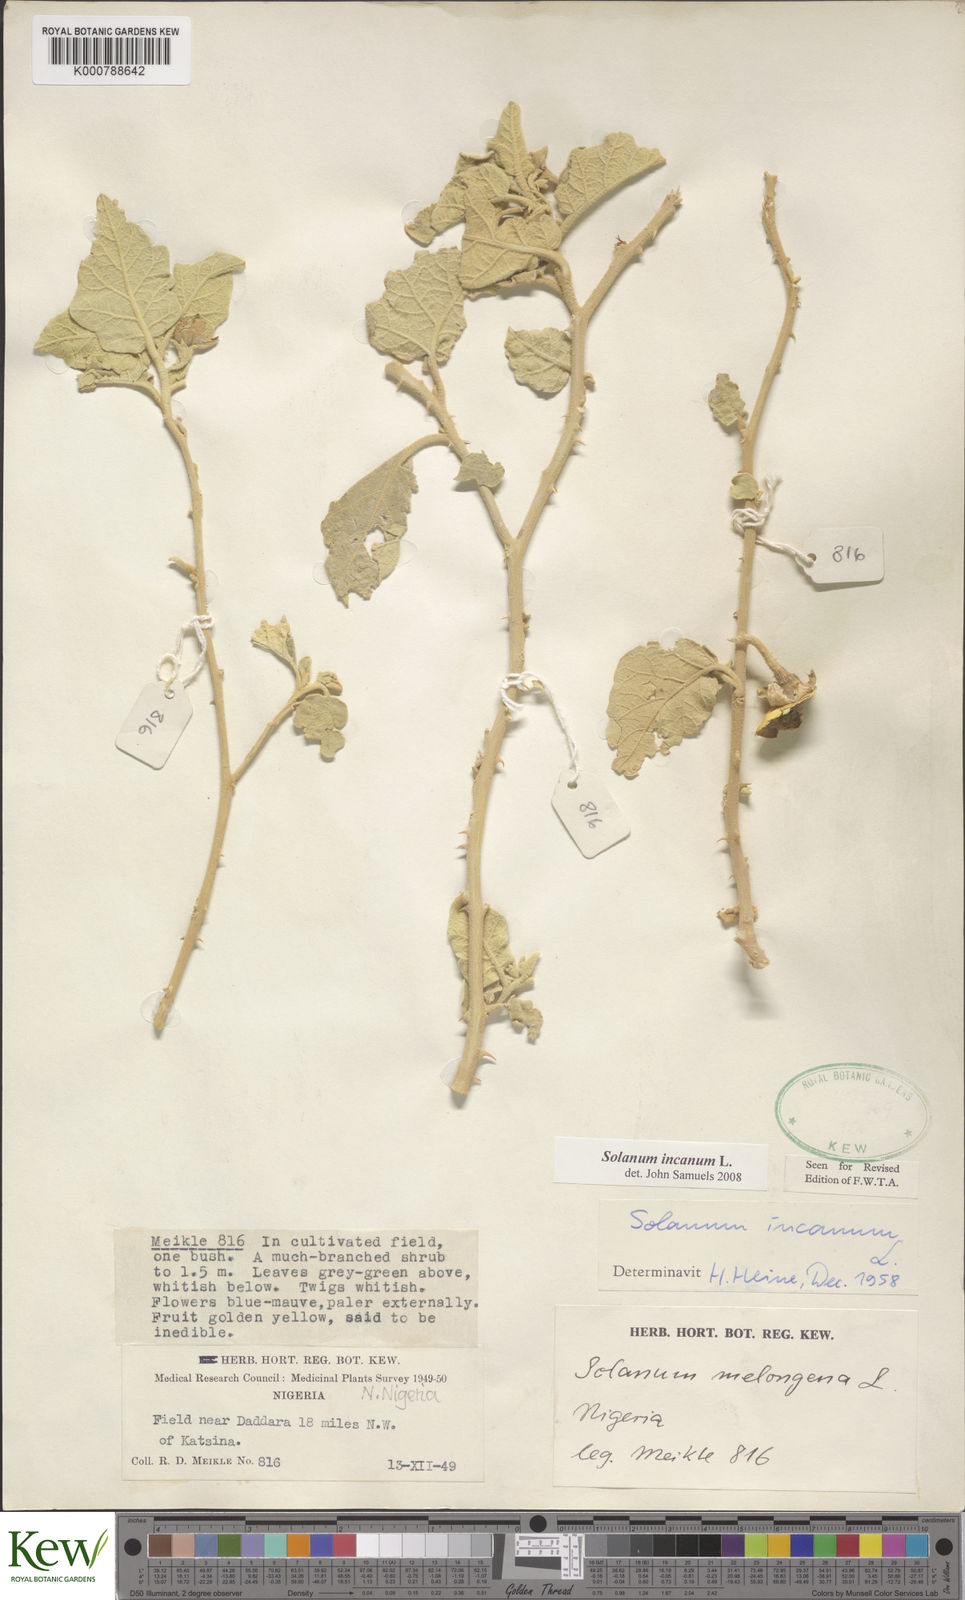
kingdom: Plantae
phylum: Tracheophyta
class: Magnoliopsida
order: Solanales
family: Solanaceae
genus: Solanum
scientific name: Solanum incanum
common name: Bitter apple
